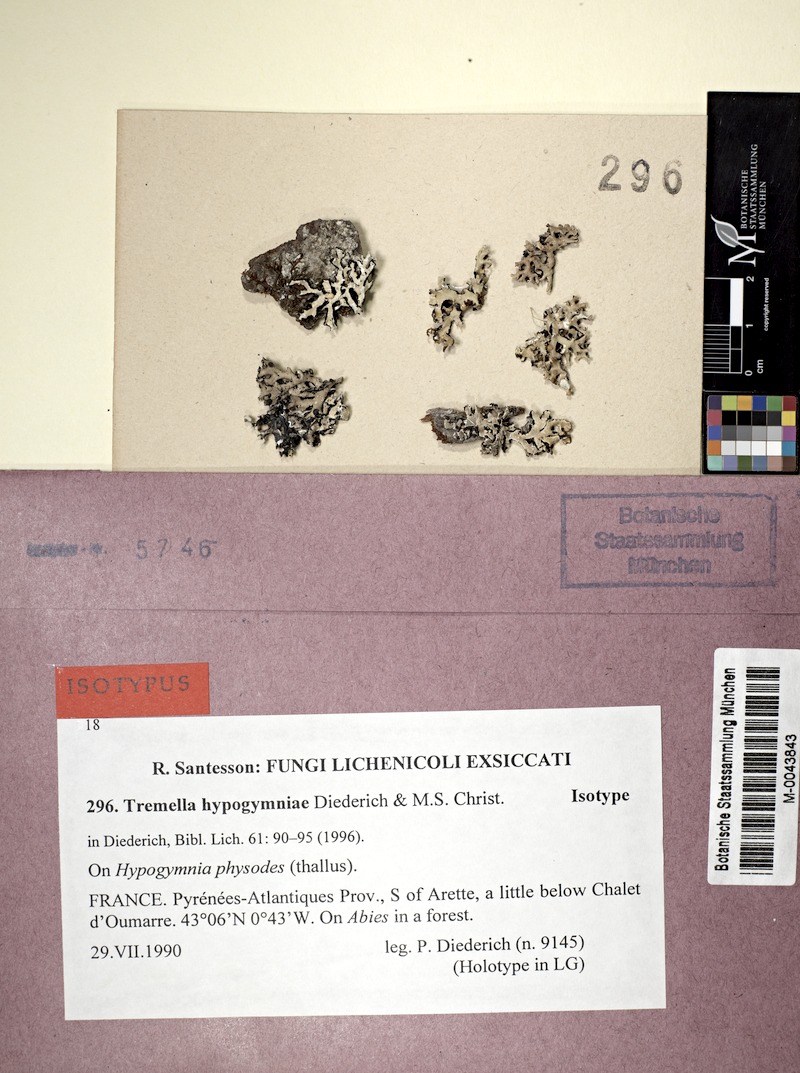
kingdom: Fungi
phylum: Ascomycota
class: Lecanoromycetes
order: Lecanorales
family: Parmeliaceae
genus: Hypogymnia
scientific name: Hypogymnia physodes
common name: Dark crottle
